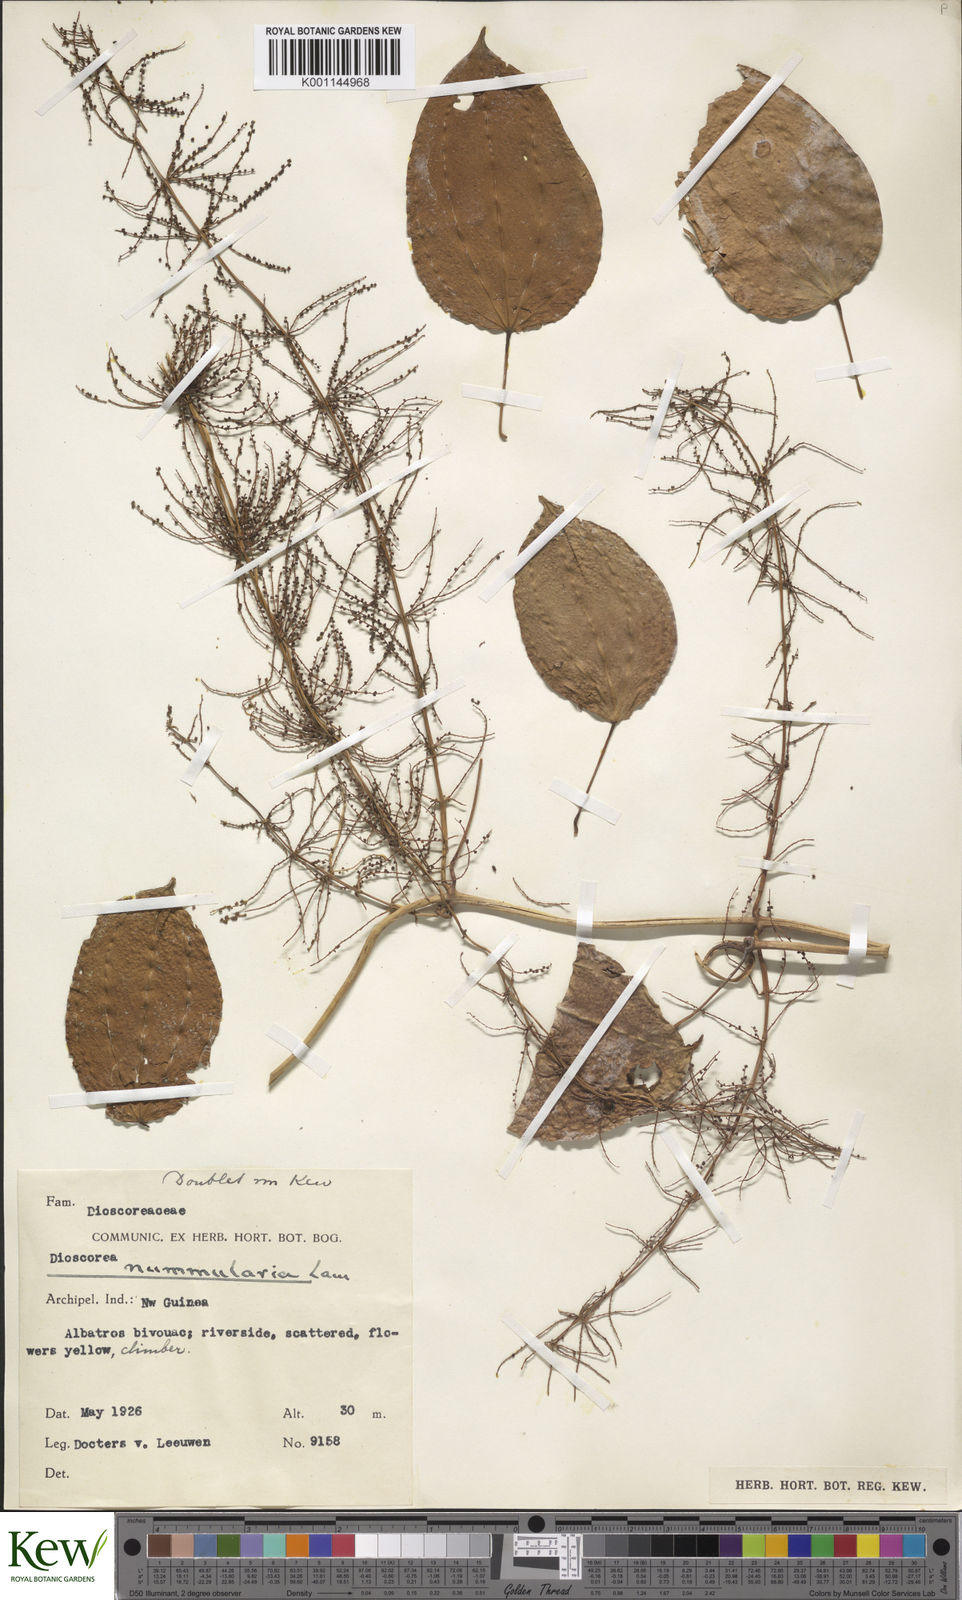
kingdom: Plantae
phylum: Tracheophyta
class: Liliopsida
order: Dioscoreales
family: Dioscoreaceae
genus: Dioscorea
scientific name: Dioscorea nummularia
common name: Pacific yam
